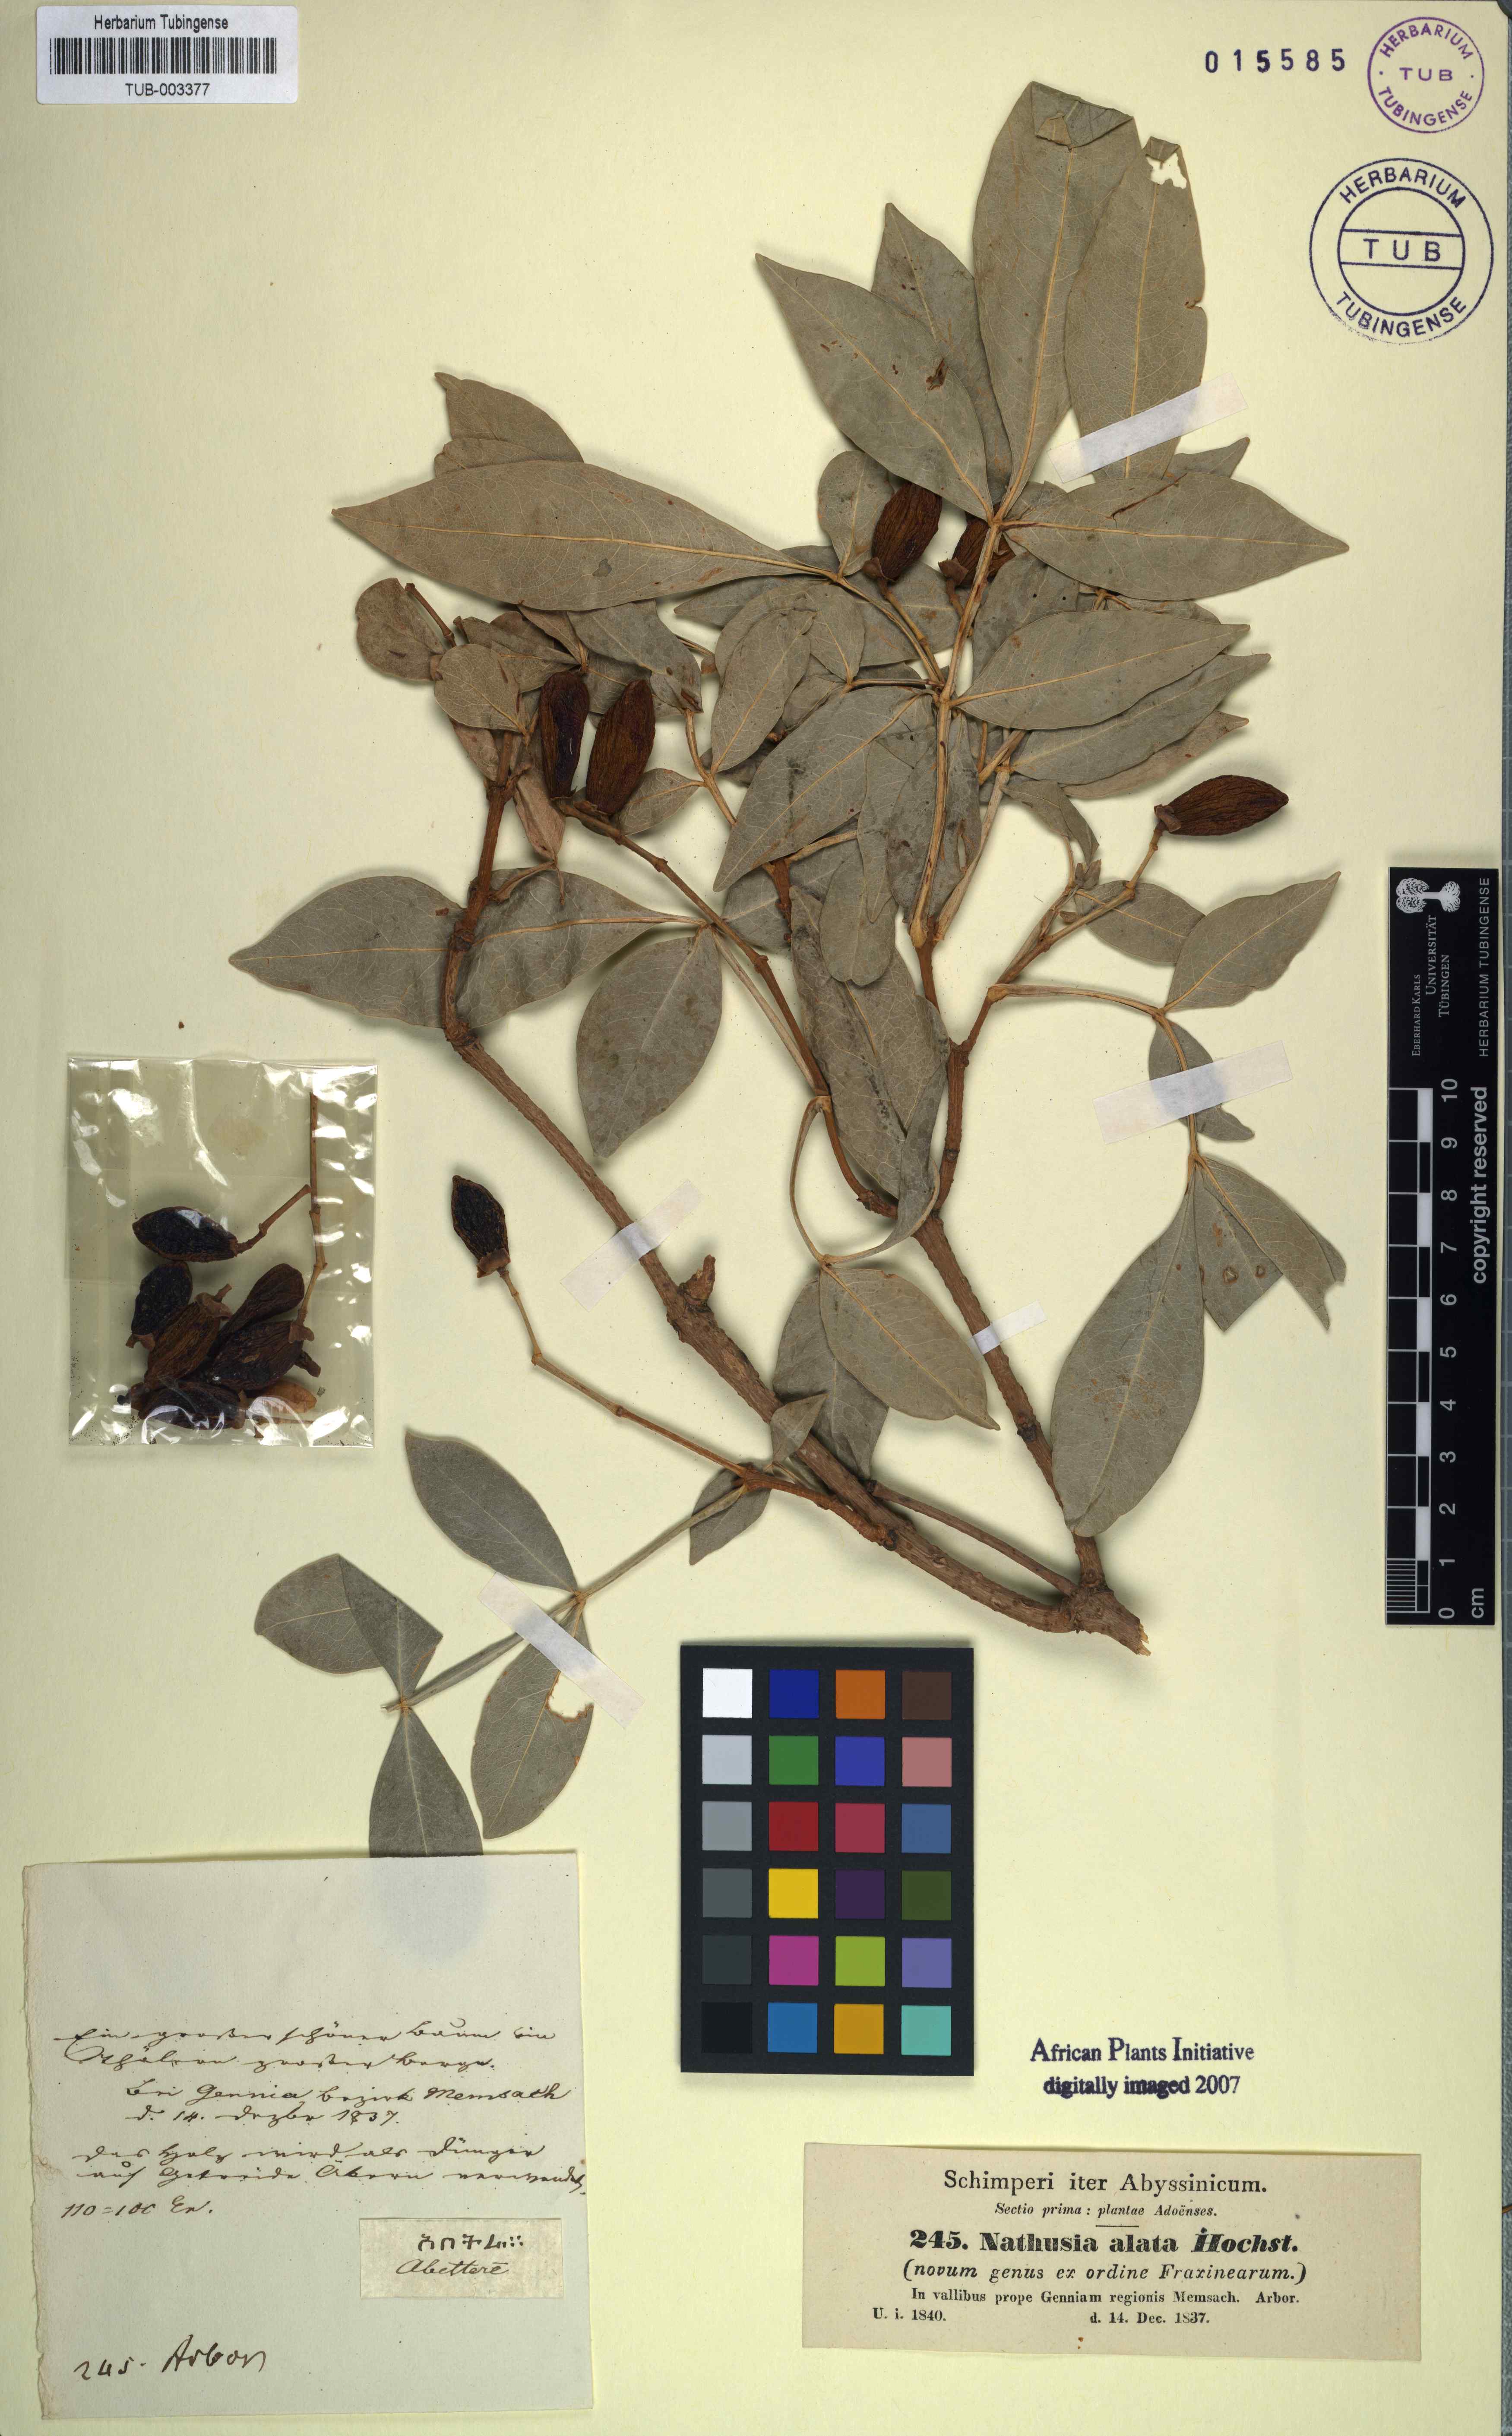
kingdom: Plantae
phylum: Tracheophyta
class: Magnoliopsida
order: Lamiales
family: Oleaceae
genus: Schrebera
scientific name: Schrebera alata
